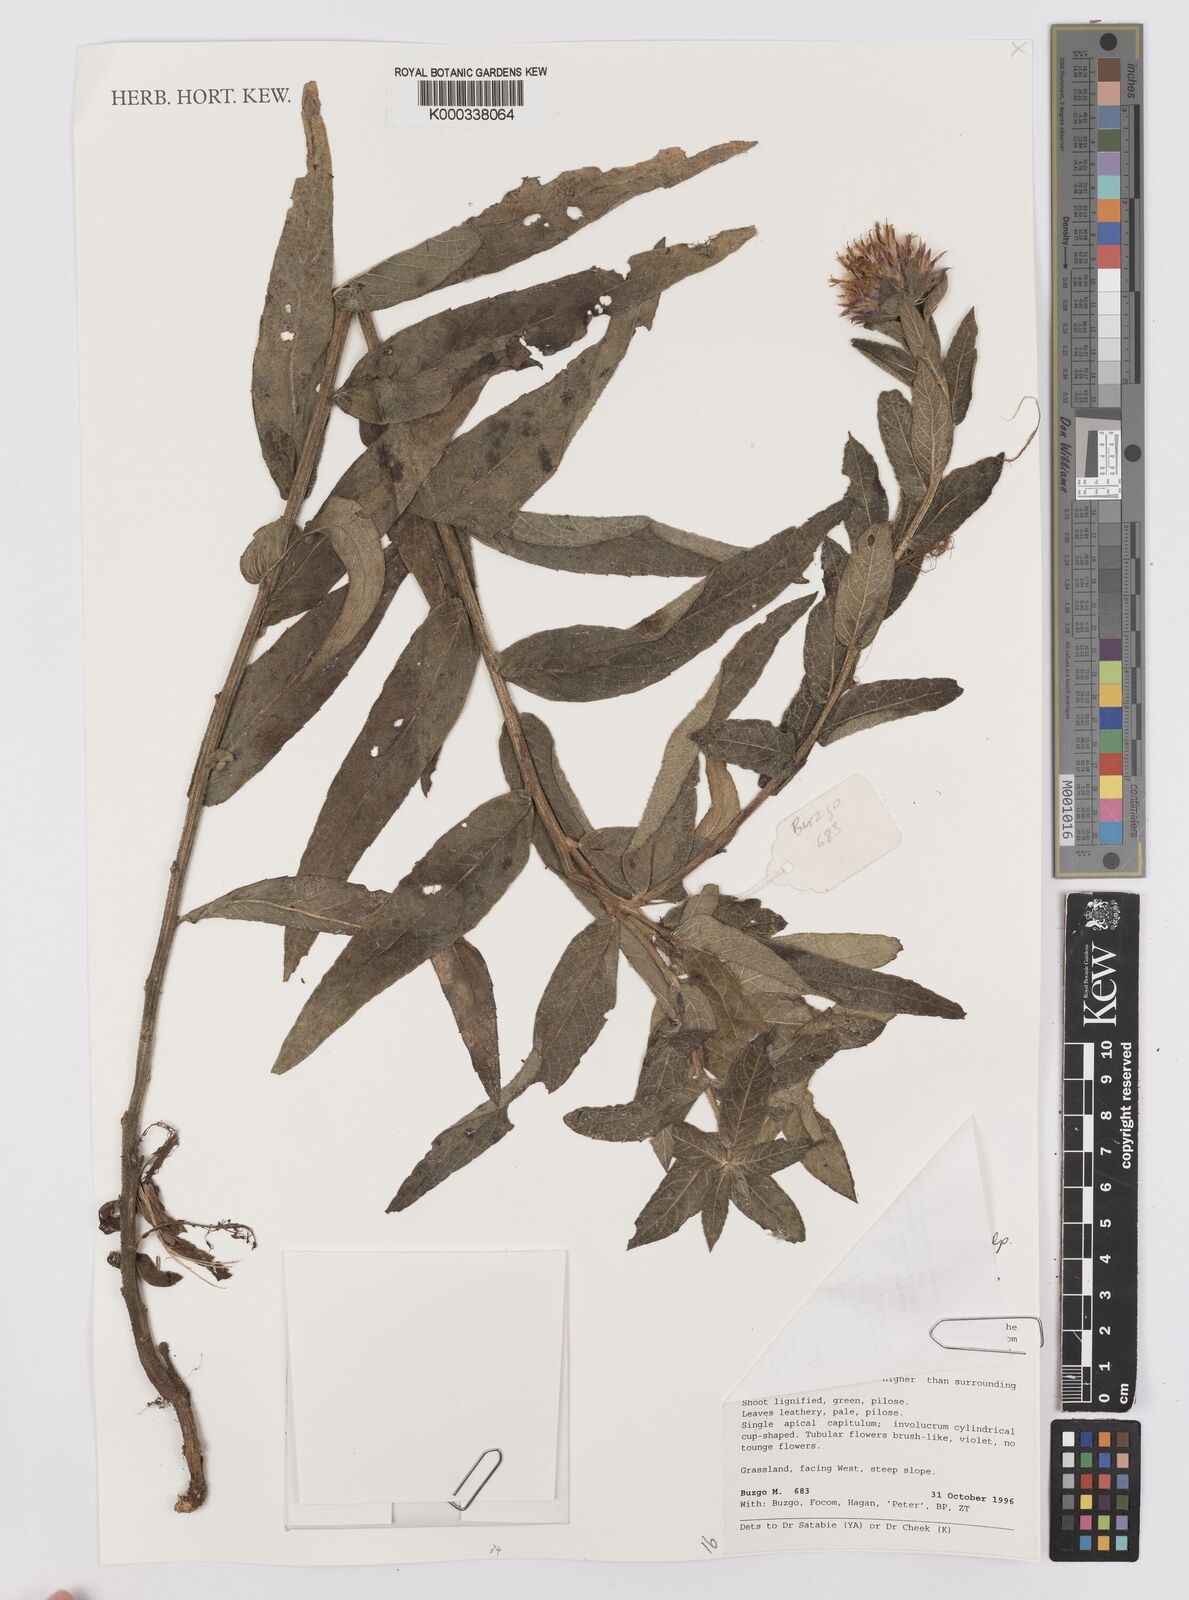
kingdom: Plantae
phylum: Tracheophyta
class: Magnoliopsida
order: Asterales
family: Asteraceae
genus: Vernonia
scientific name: Vernonia
